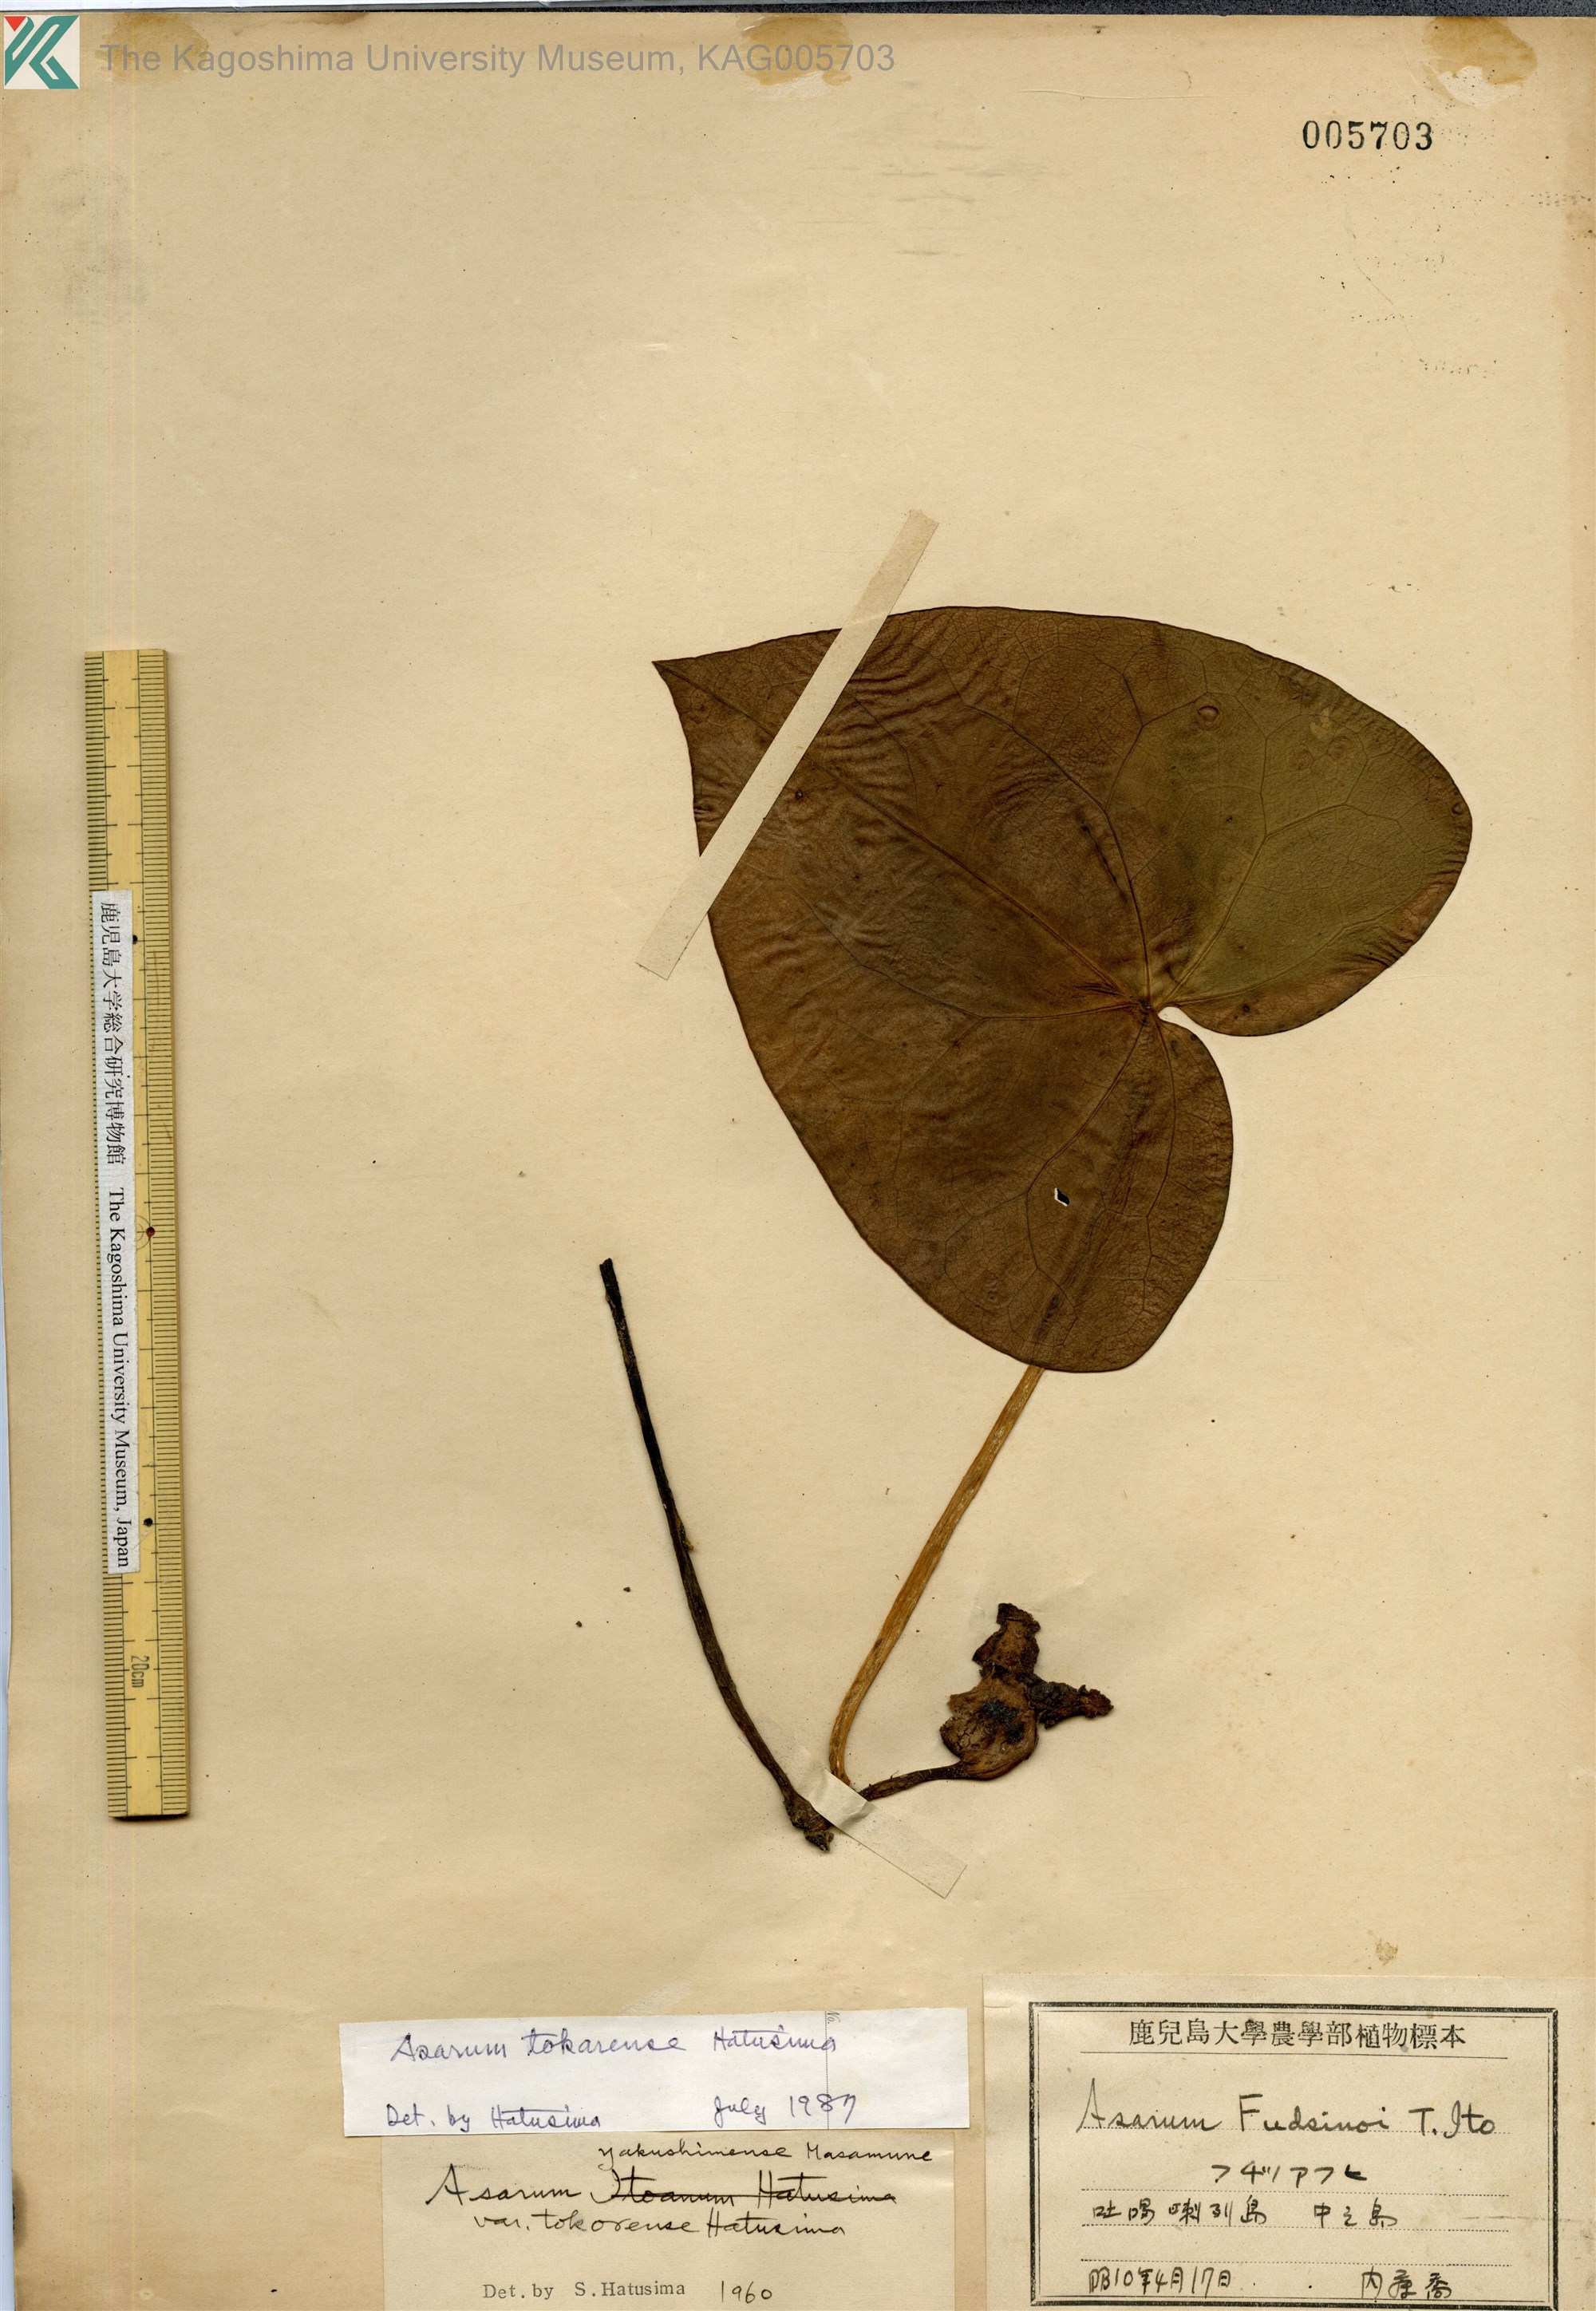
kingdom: Plantae
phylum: Tracheophyta
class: Magnoliopsida
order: Piperales
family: Aristolochiaceae
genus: Asarum
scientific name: Asarum tokarense
